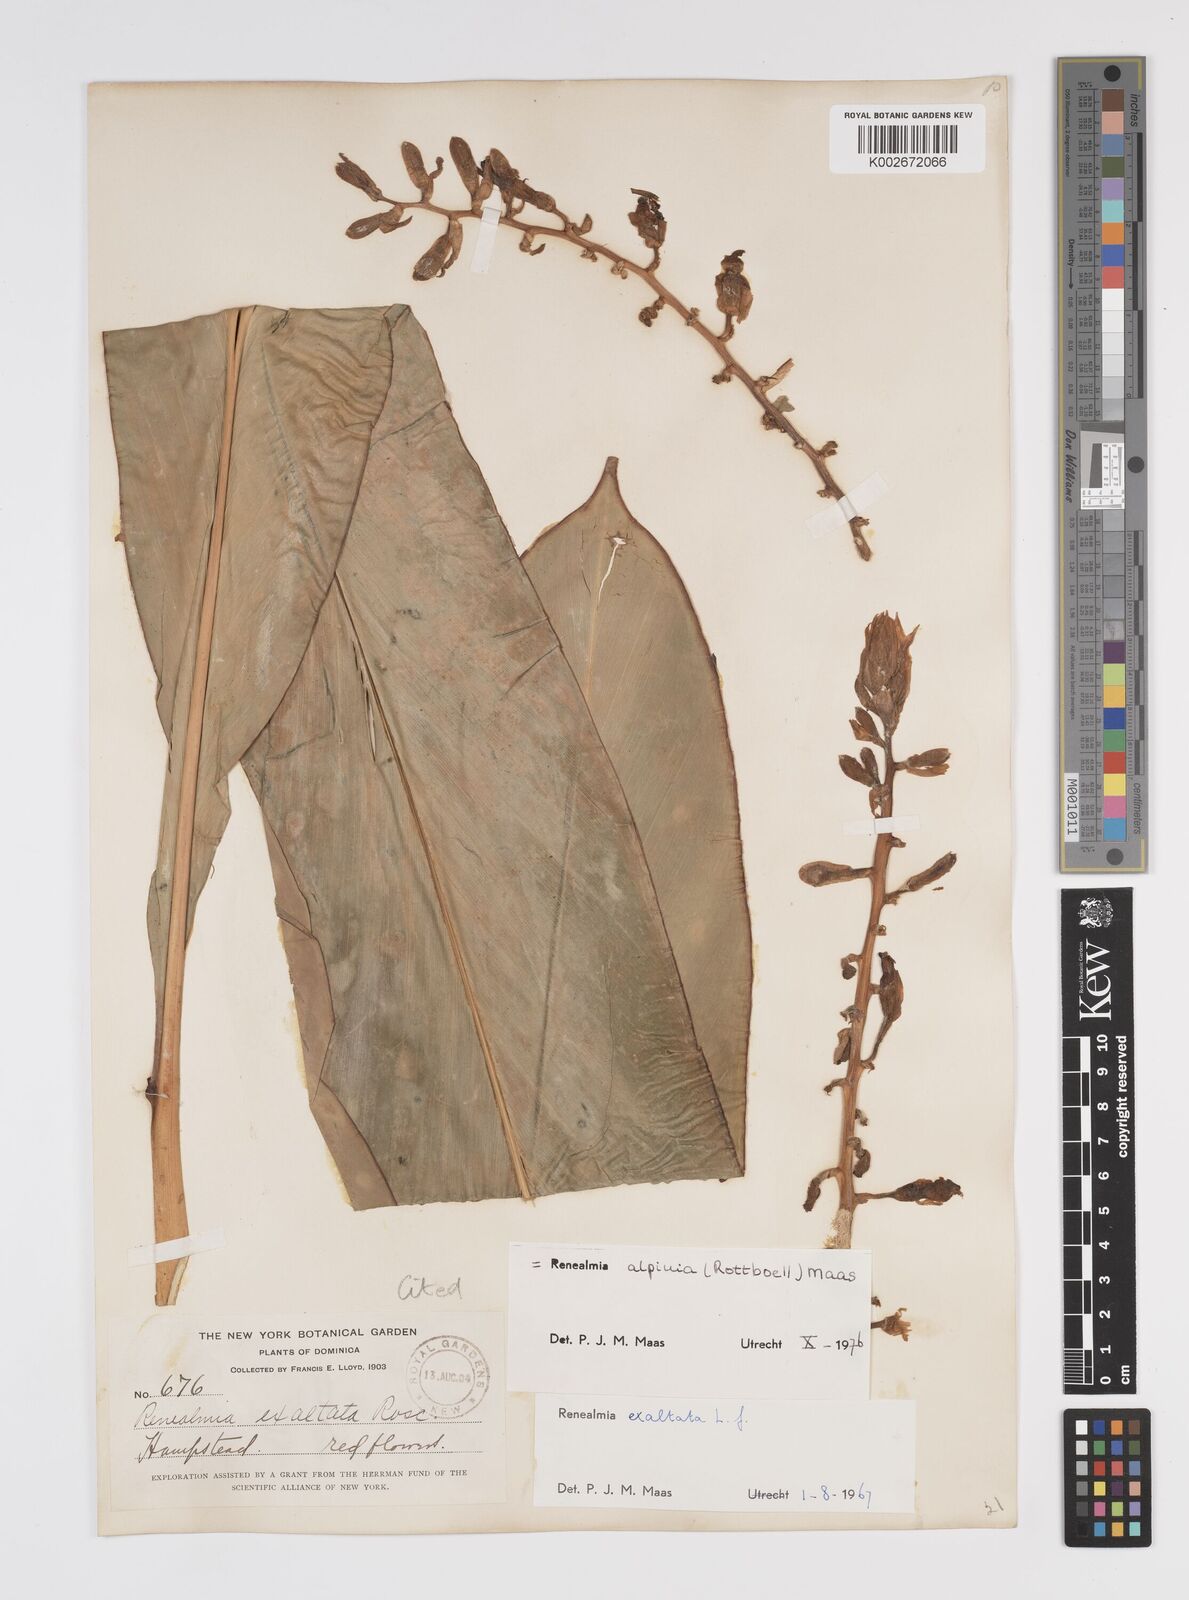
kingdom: Plantae
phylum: Tracheophyta
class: Liliopsida
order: Zingiberales
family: Zingiberaceae
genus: Renealmia
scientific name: Renealmia alpinia
